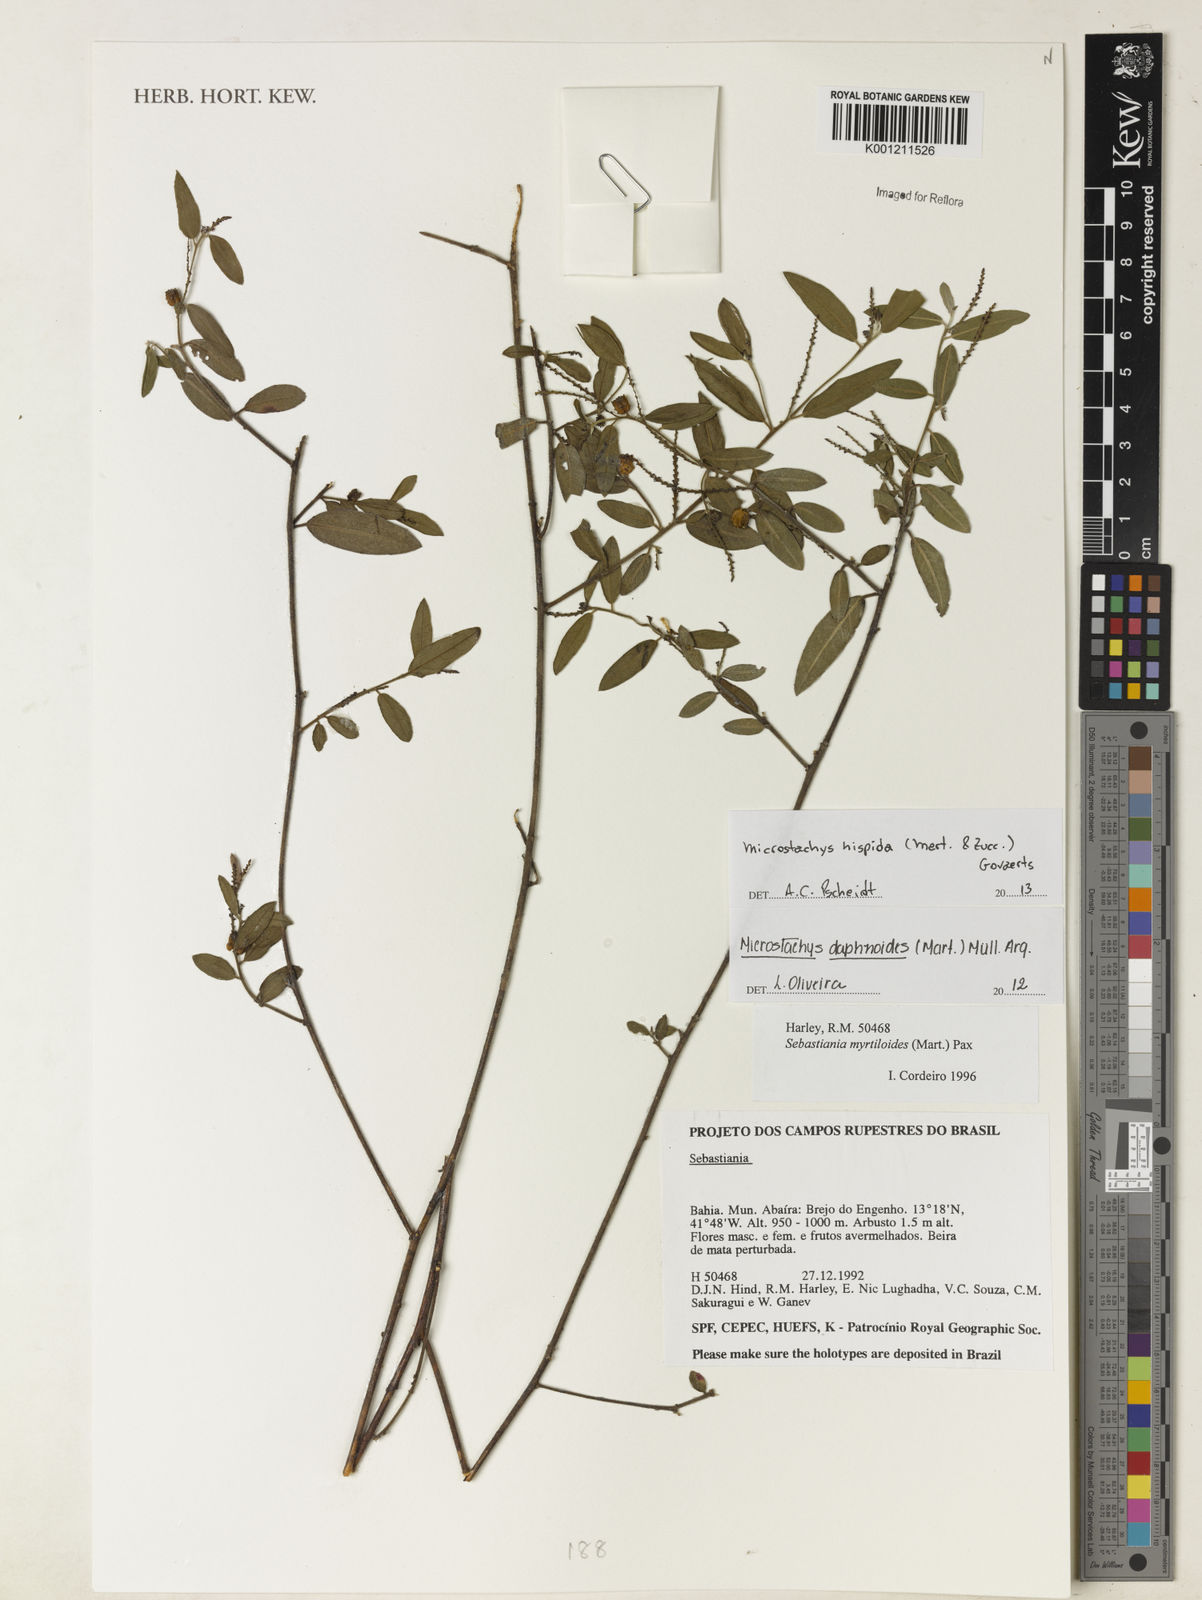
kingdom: Plantae
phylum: Tracheophyta
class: Magnoliopsida
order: Malpighiales
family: Euphorbiaceae
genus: Microstachys
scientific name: Microstachys hispida
